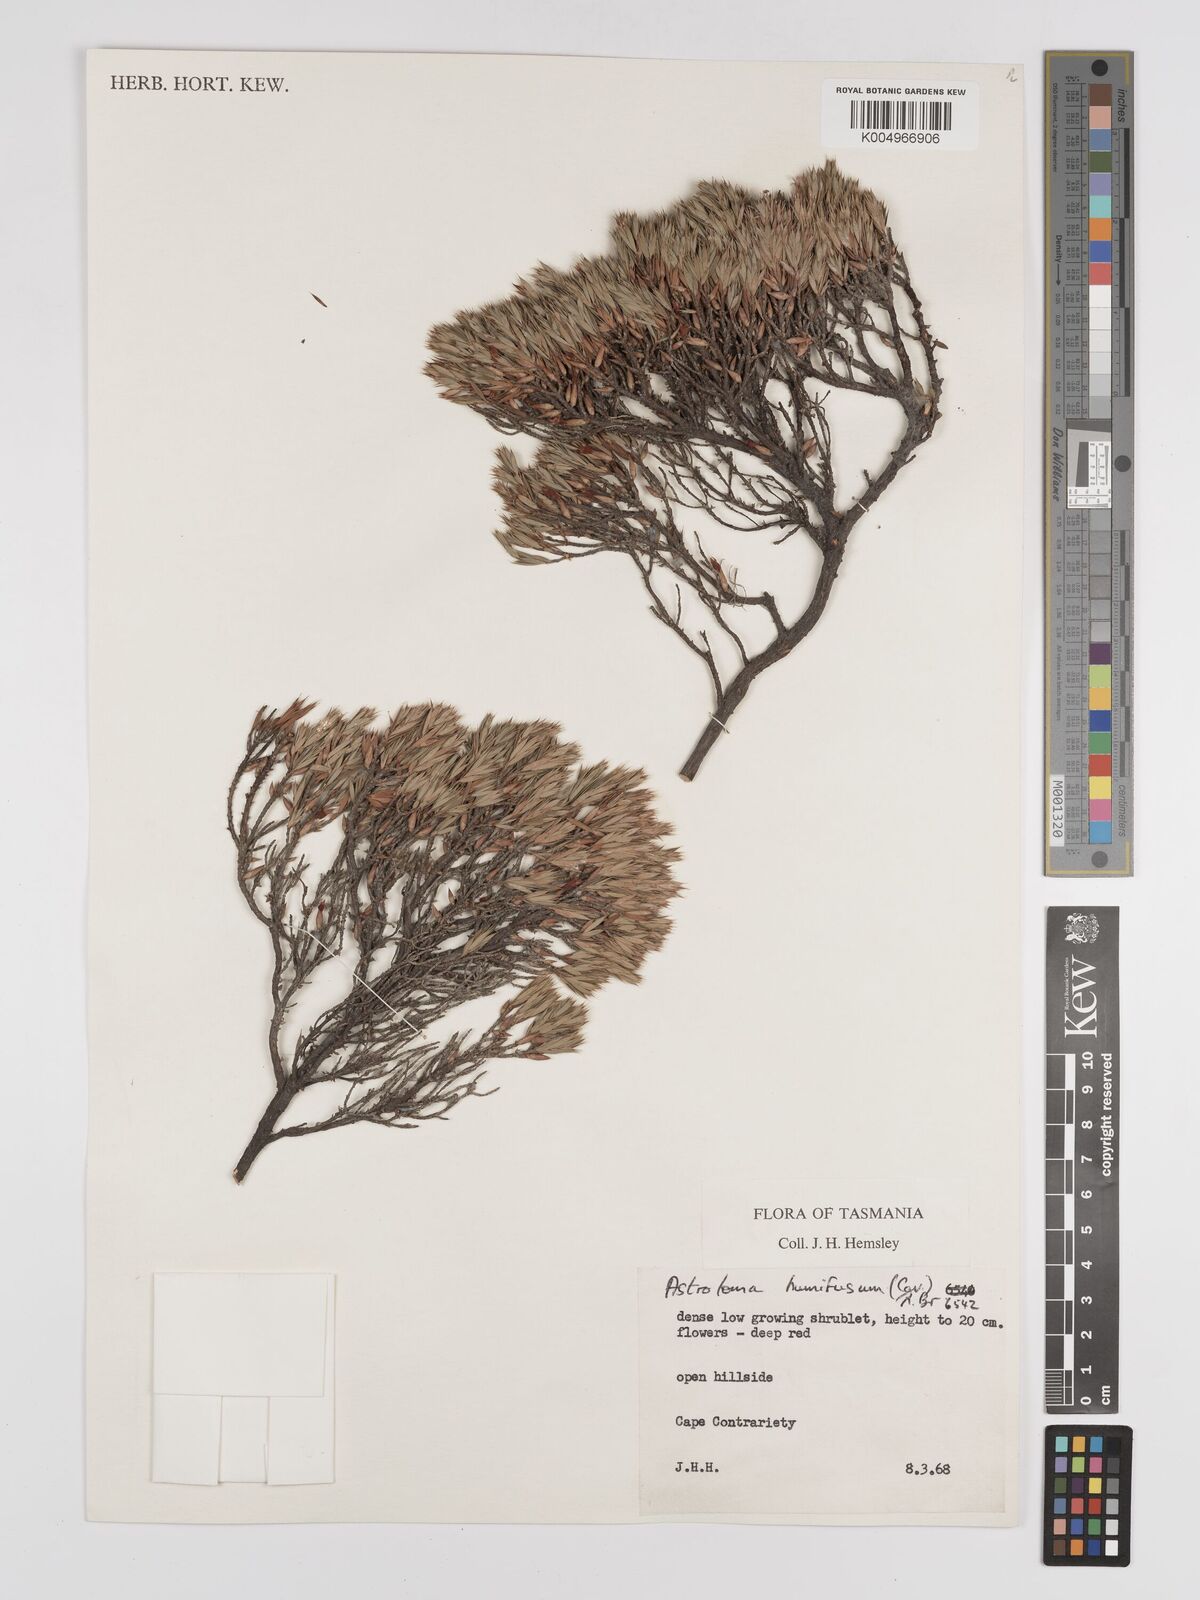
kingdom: Plantae
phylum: Tracheophyta
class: Magnoliopsida
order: Ericales
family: Ericaceae
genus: Styphelia
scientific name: Styphelia humifusa
